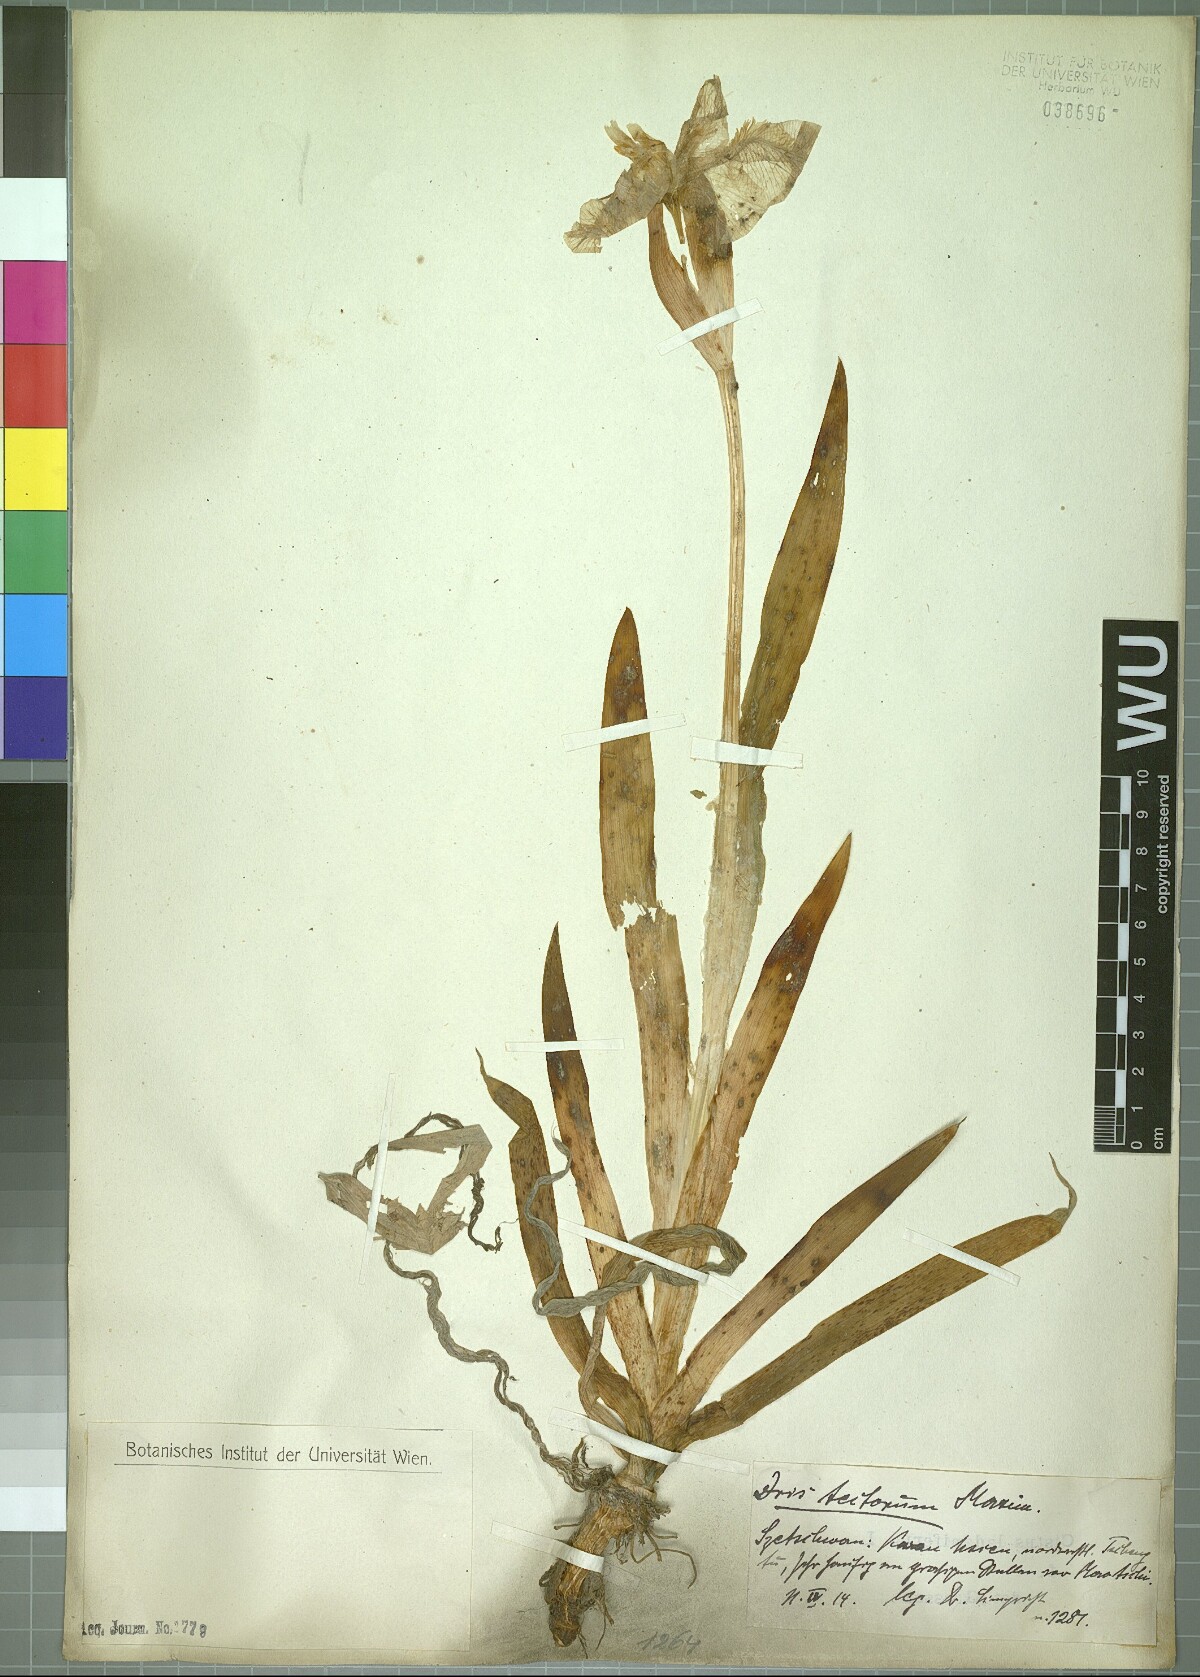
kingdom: Plantae
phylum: Tracheophyta
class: Liliopsida
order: Asparagales
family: Iridaceae
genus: Iris
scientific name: Iris tectorum
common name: Wall iris
